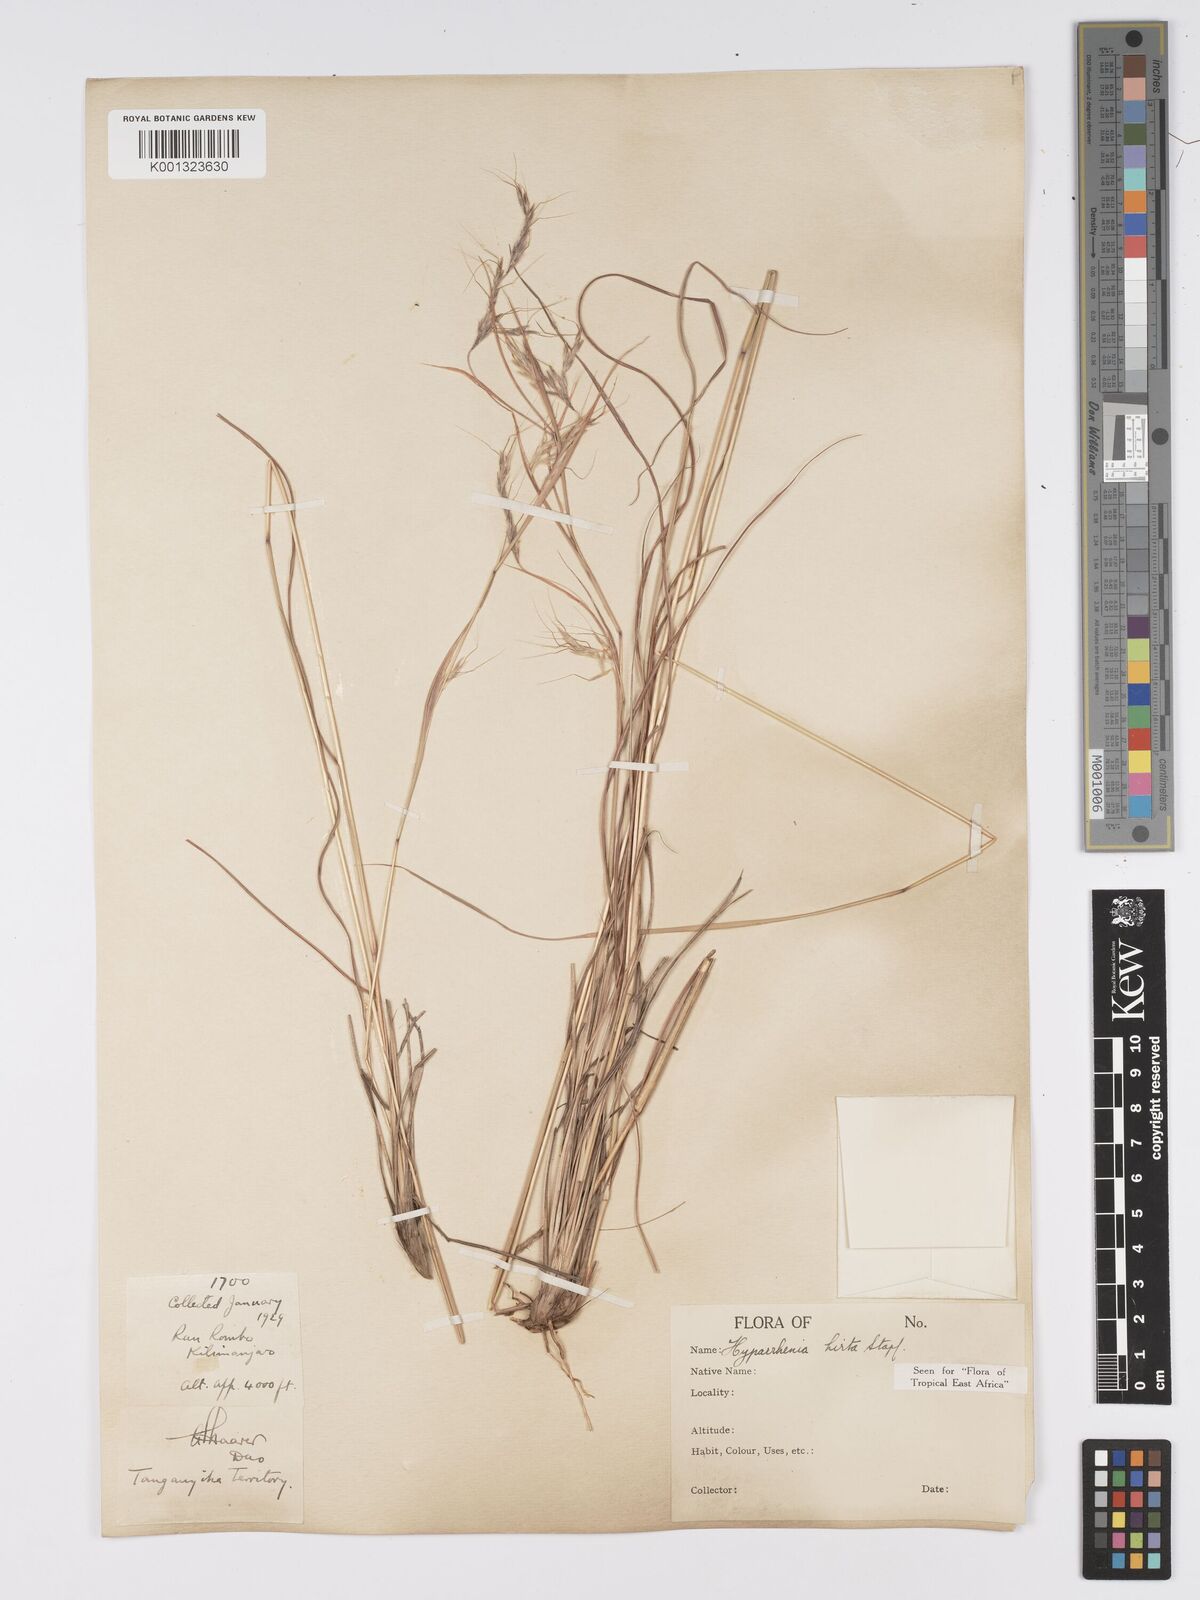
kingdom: Plantae
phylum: Tracheophyta
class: Liliopsida
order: Poales
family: Poaceae
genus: Hyparrhenia
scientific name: Hyparrhenia hirta
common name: Thatching grass
